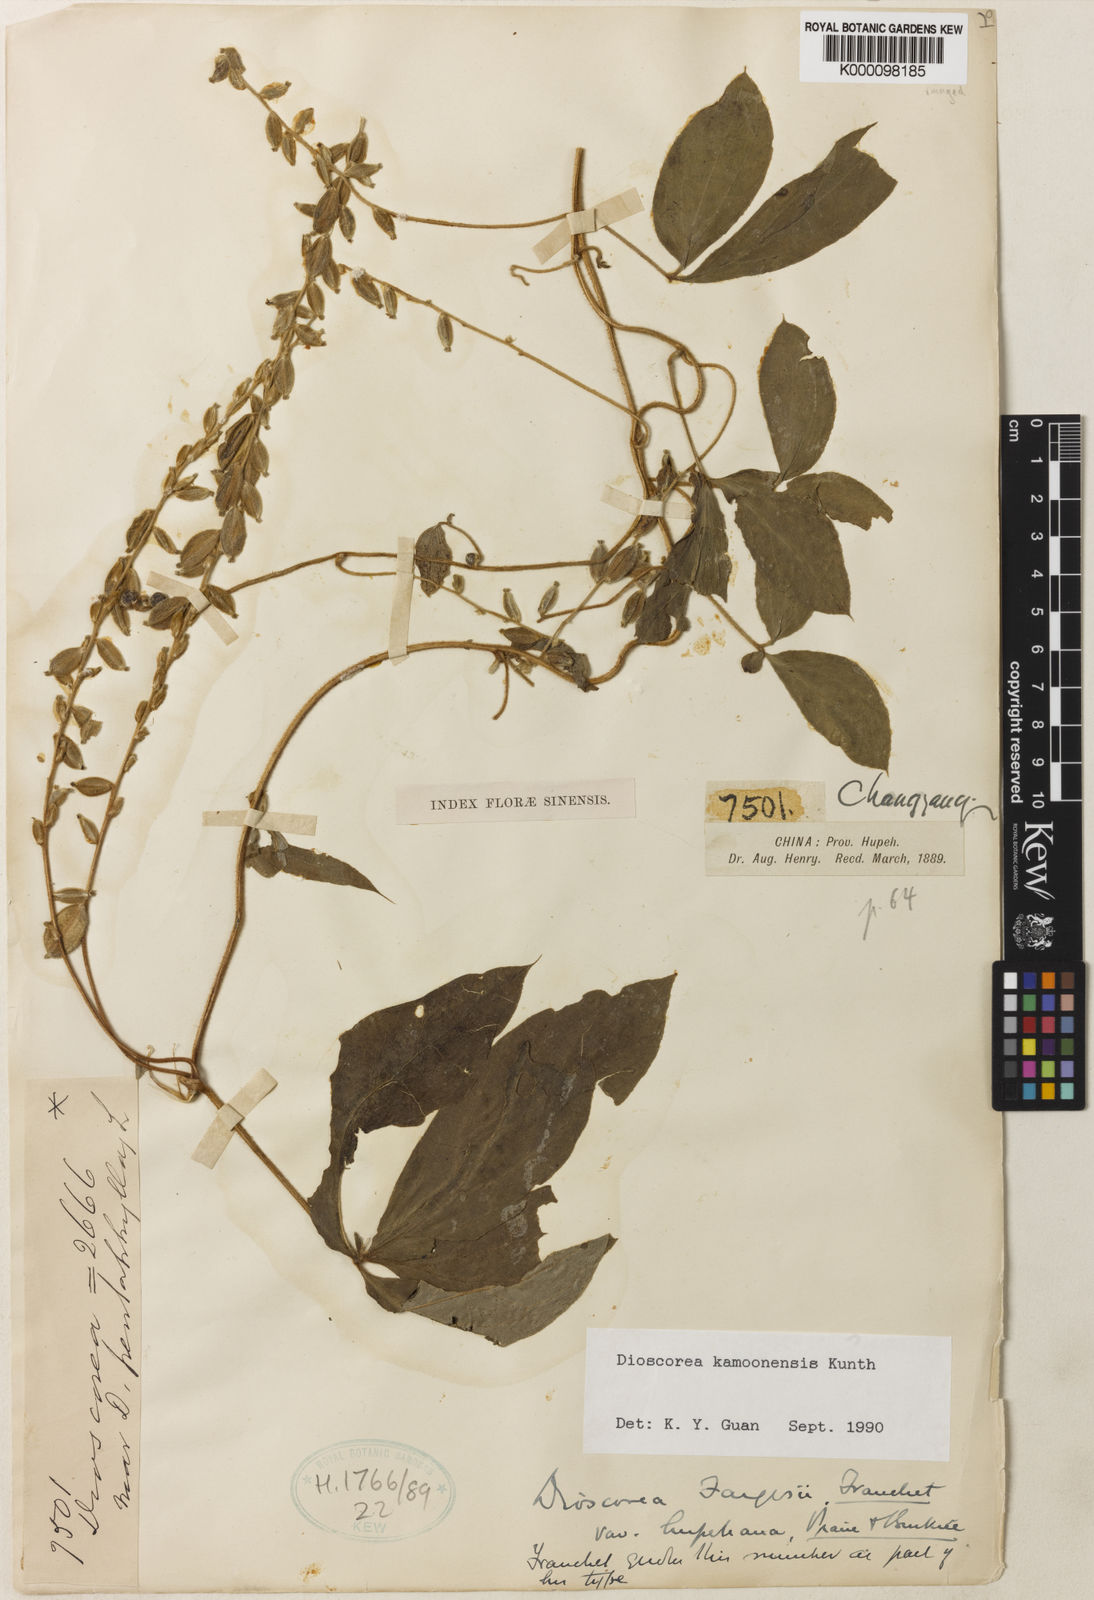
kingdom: Plantae
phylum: Tracheophyta
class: Liliopsida
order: Dioscoreales
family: Dioscoreaceae
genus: Dioscorea
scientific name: Dioscorea kamoonensis
